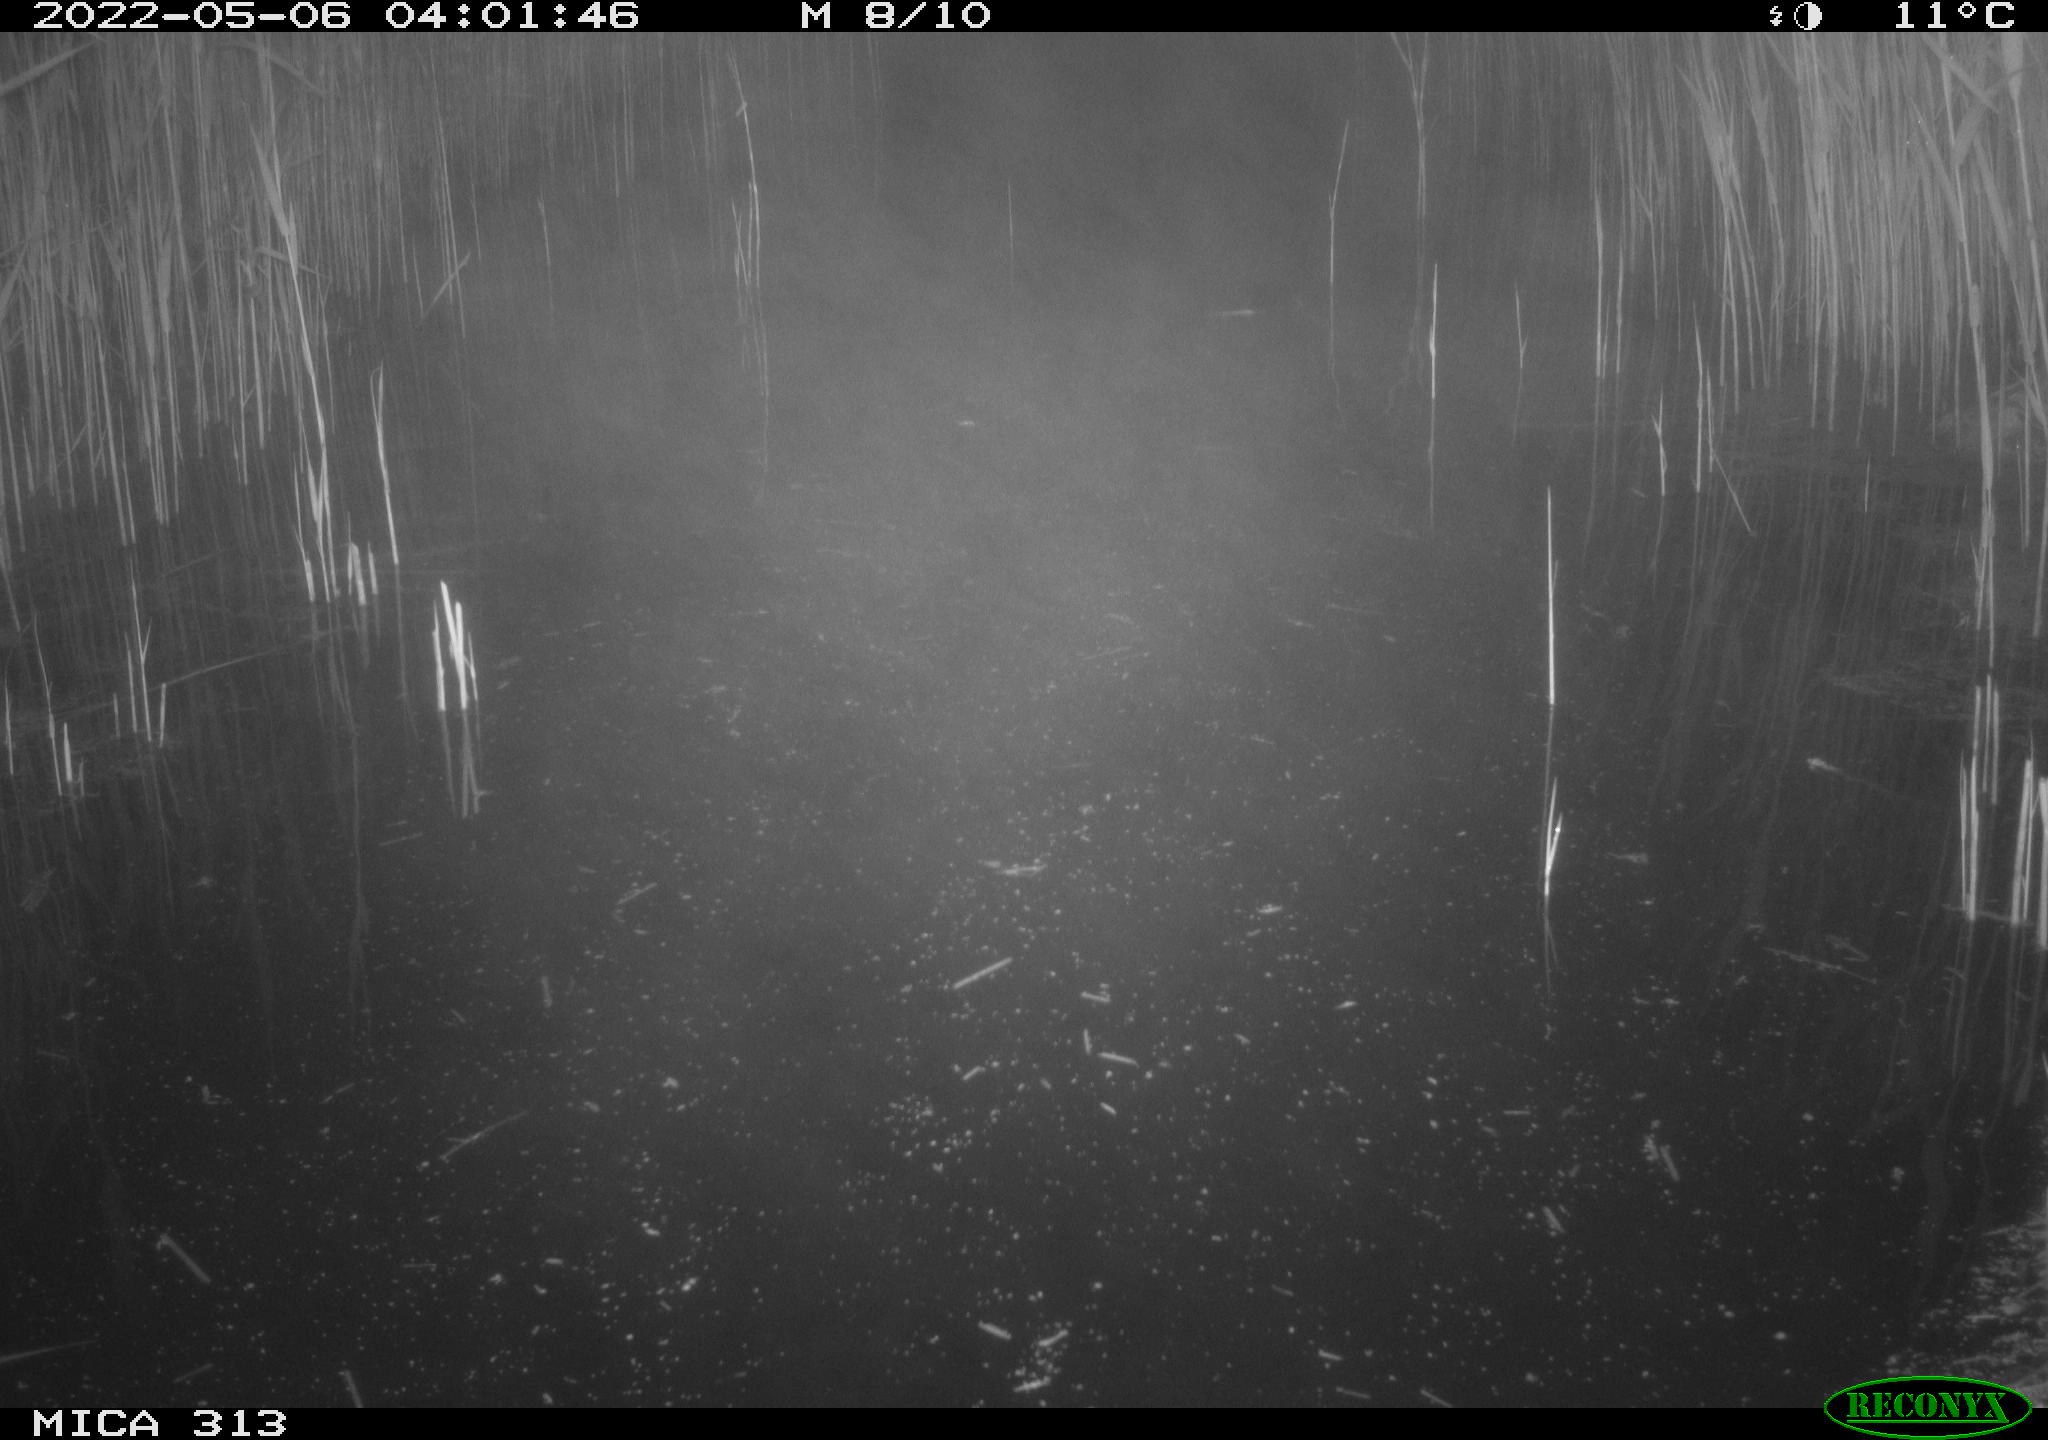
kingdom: Animalia
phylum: Chordata
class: Aves
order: Gruiformes
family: Rallidae
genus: Fulica
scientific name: Fulica atra
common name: Eurasian coot
